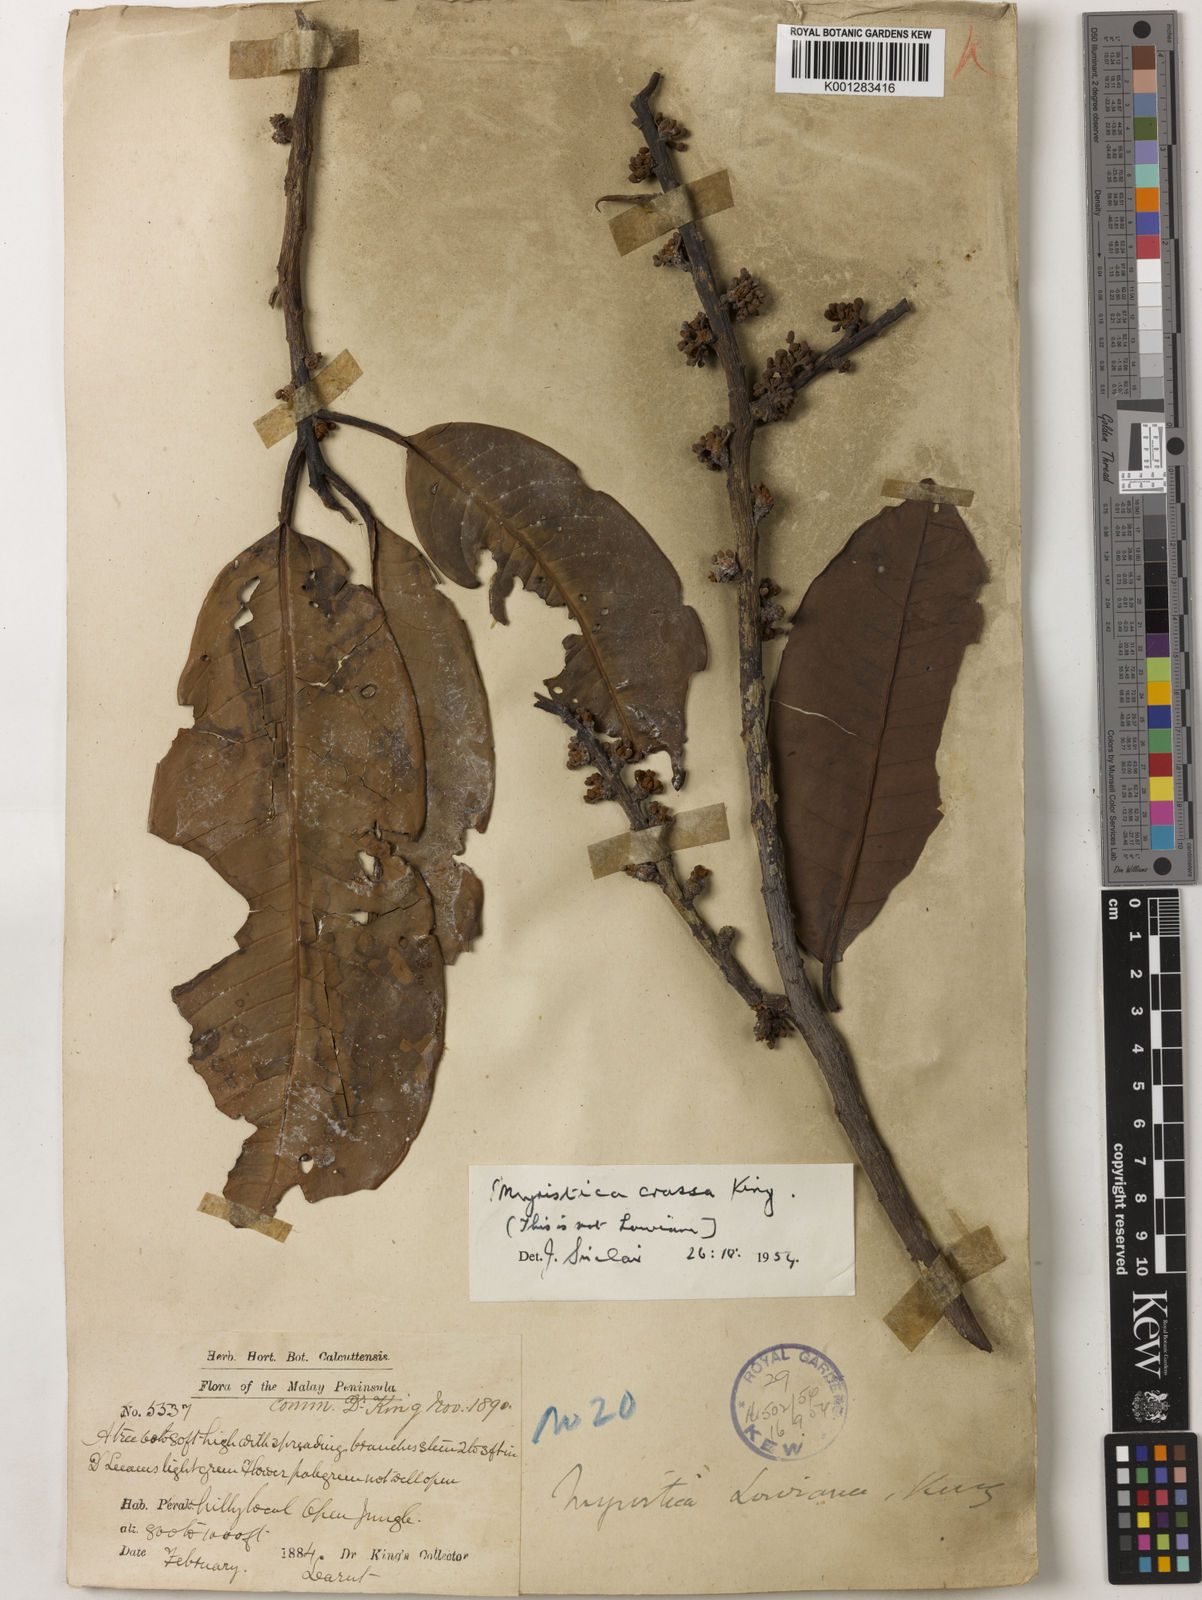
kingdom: Plantae
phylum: Tracheophyta
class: Magnoliopsida
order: Magnoliales
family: Myristicaceae
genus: Myristica
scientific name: Myristica crassa
